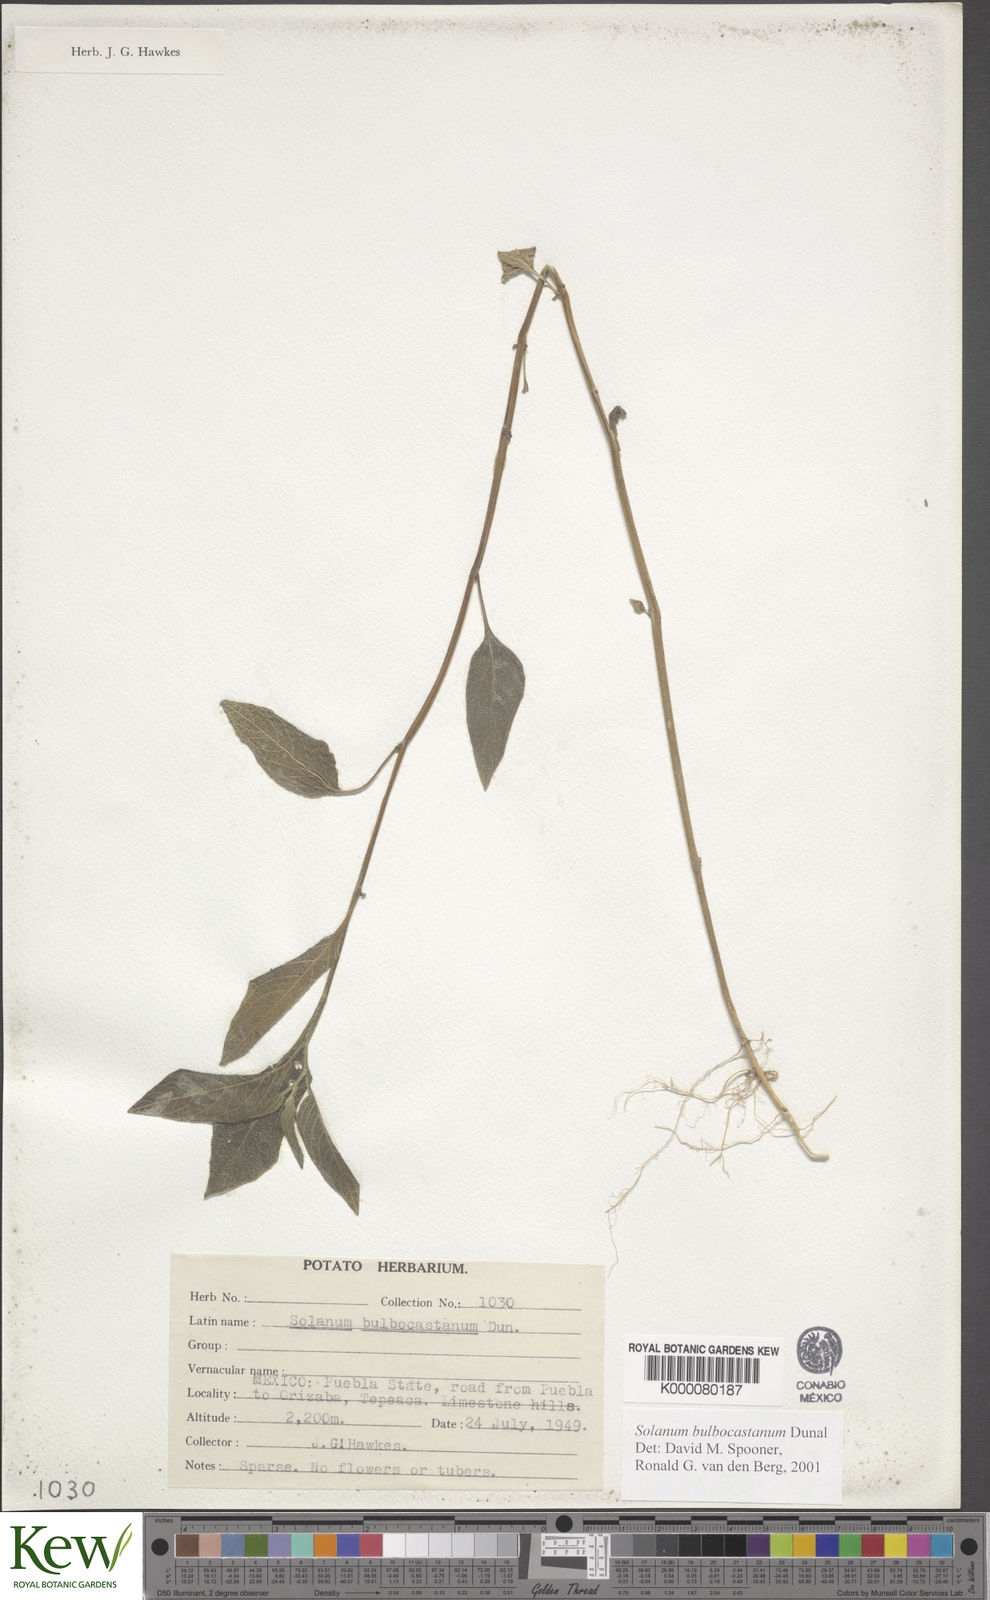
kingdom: Plantae
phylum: Tracheophyta
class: Magnoliopsida
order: Solanales
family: Solanaceae
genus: Solanum
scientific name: Solanum bulbocastanum
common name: Ornamental nightshade
